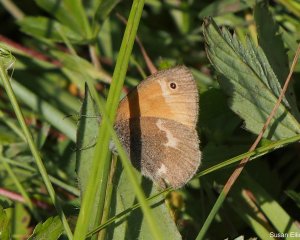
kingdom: Animalia
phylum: Arthropoda
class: Insecta
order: Lepidoptera
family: Nymphalidae
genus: Coenonympha
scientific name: Coenonympha tullia
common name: Large Heath
